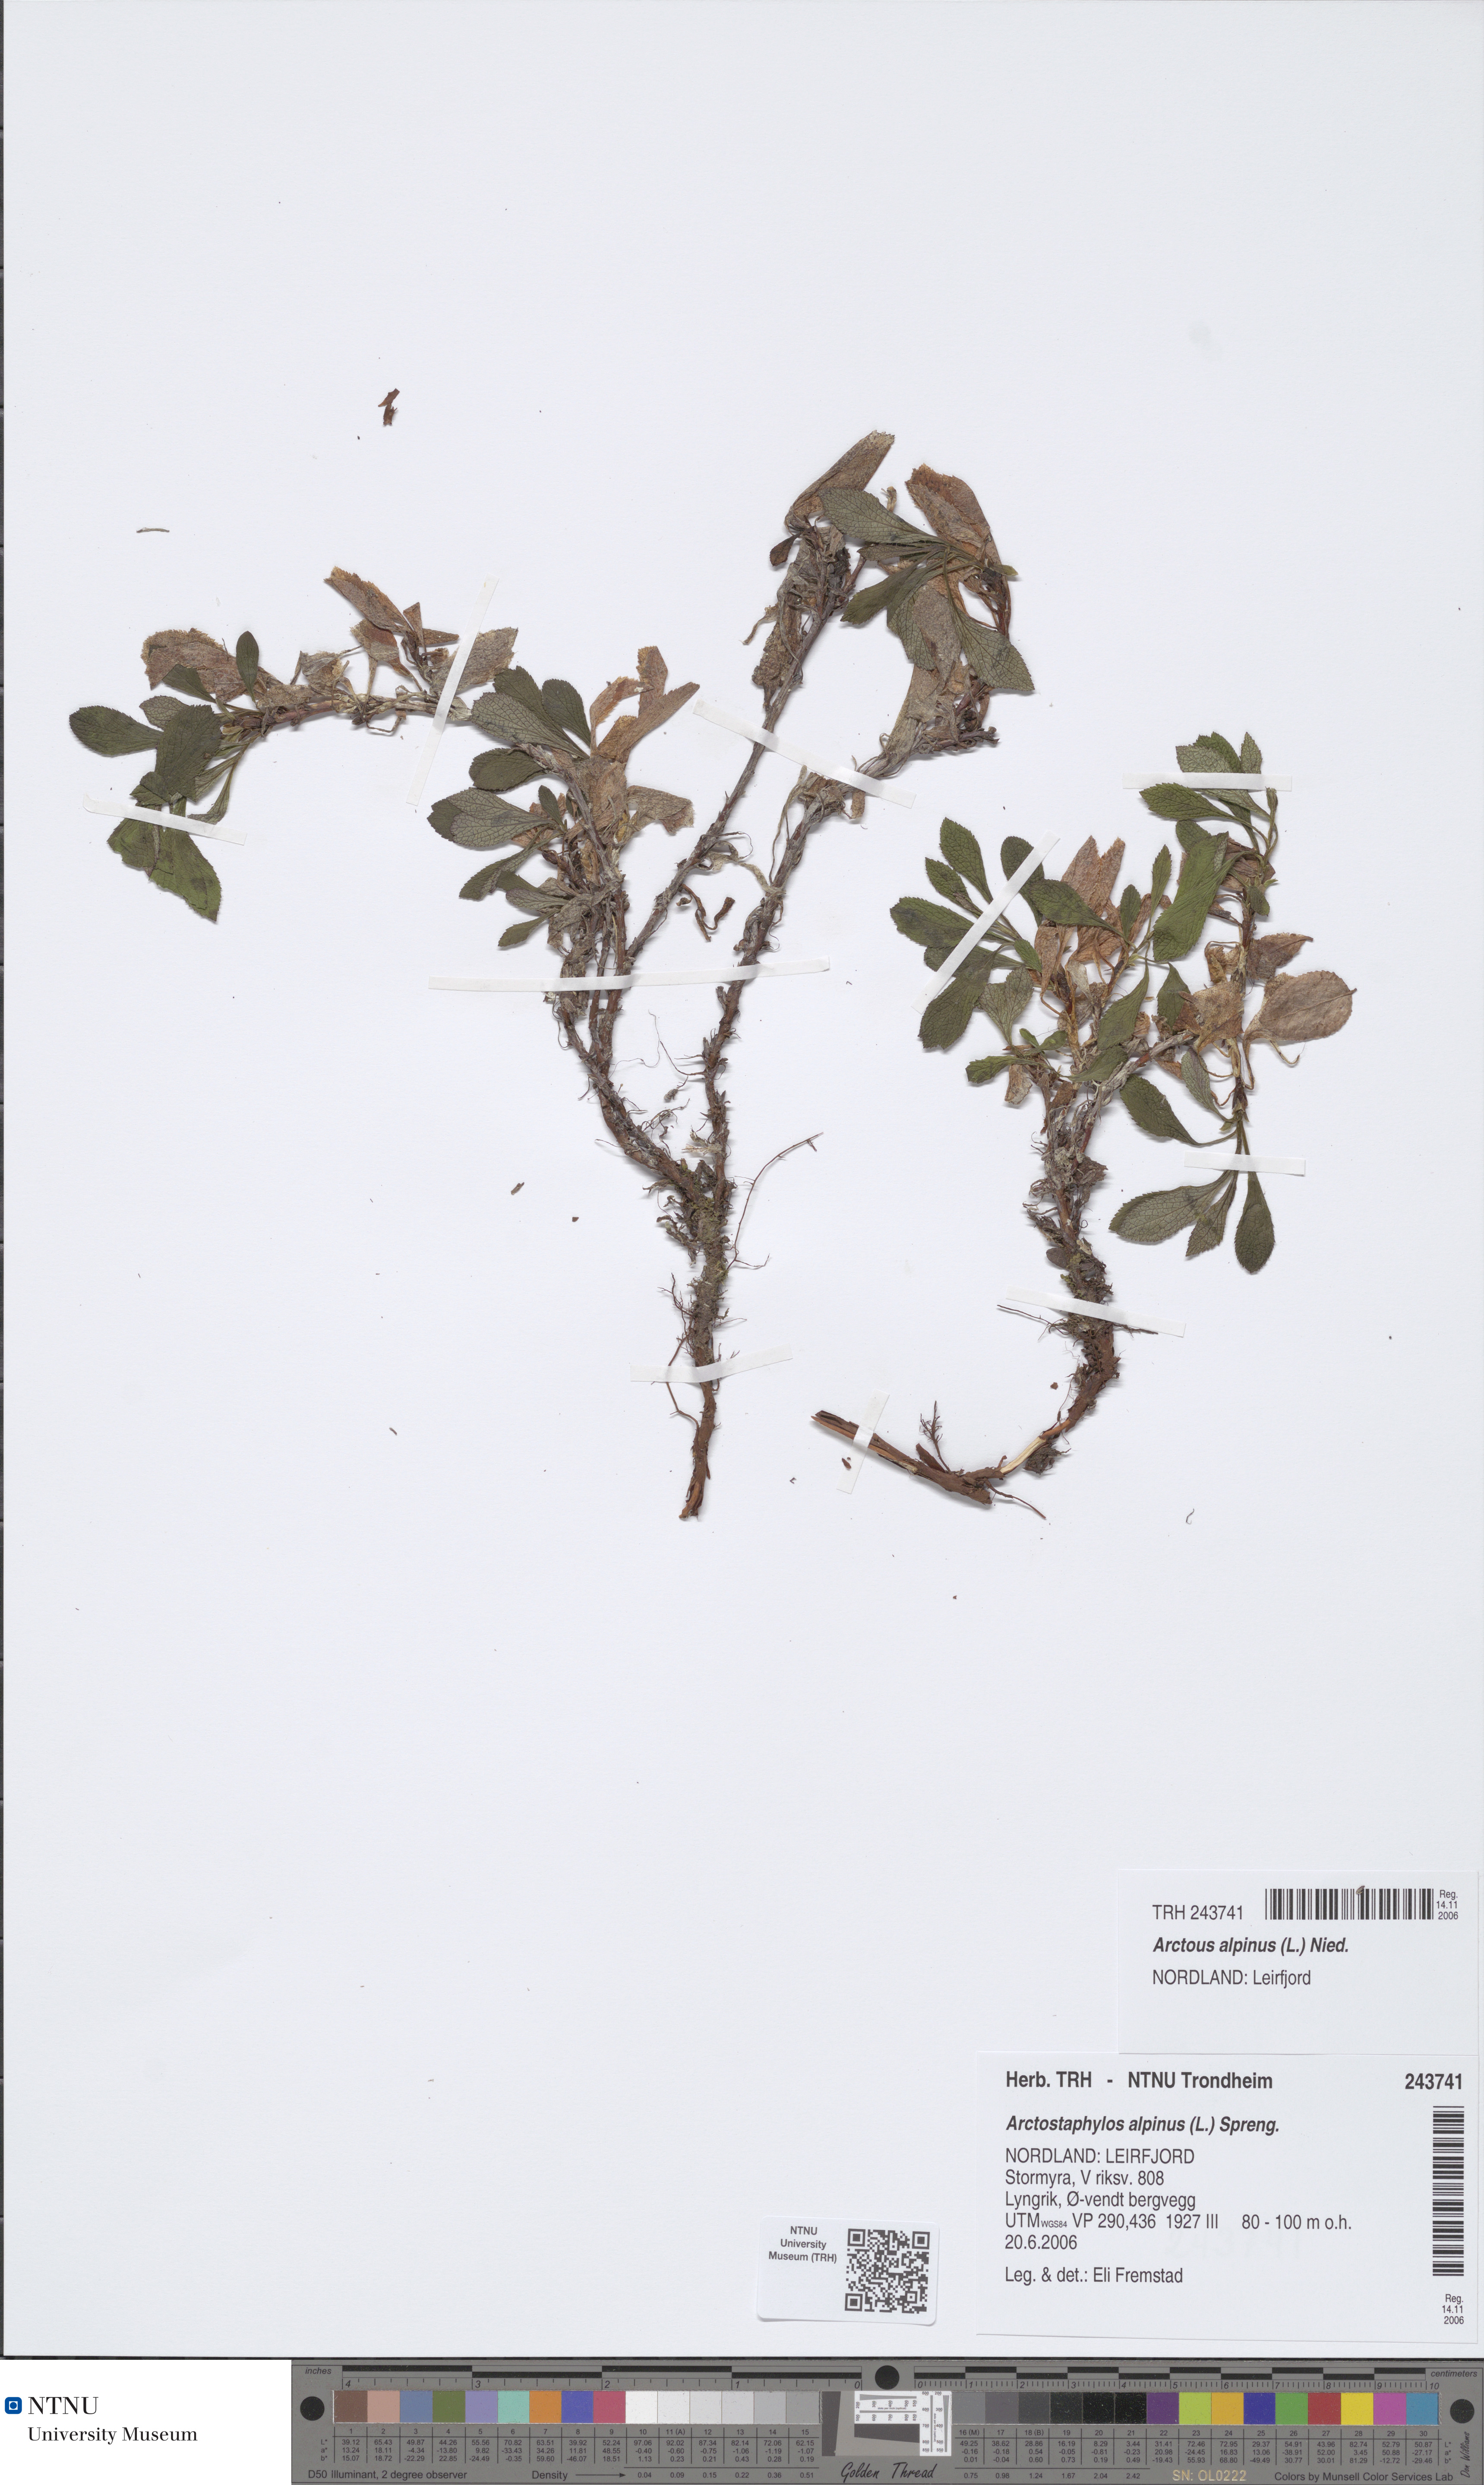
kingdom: Plantae
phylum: Tracheophyta
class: Magnoliopsida
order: Ericales
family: Ericaceae
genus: Arctostaphylos
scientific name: Arctostaphylos alpinus
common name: Alpine bearberry
